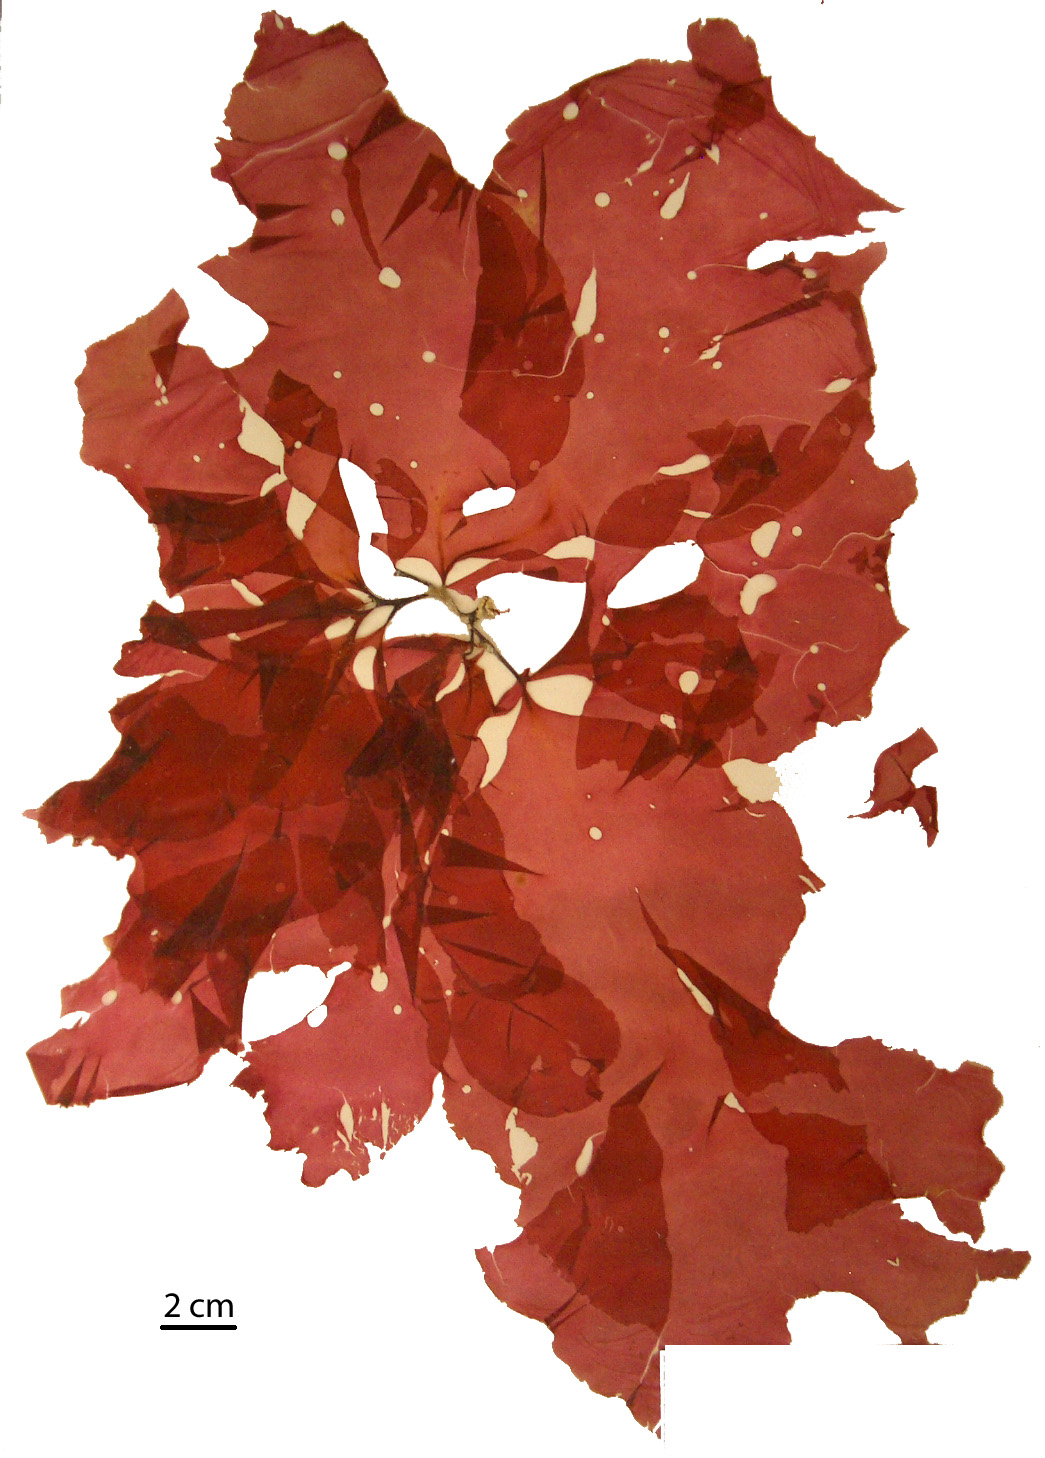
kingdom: Plantae
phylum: Rhodophyta
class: Florideophyceae
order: Halymeniales
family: Halymeniaceae
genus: Cryptonemia
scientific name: Cryptonemia latissima
